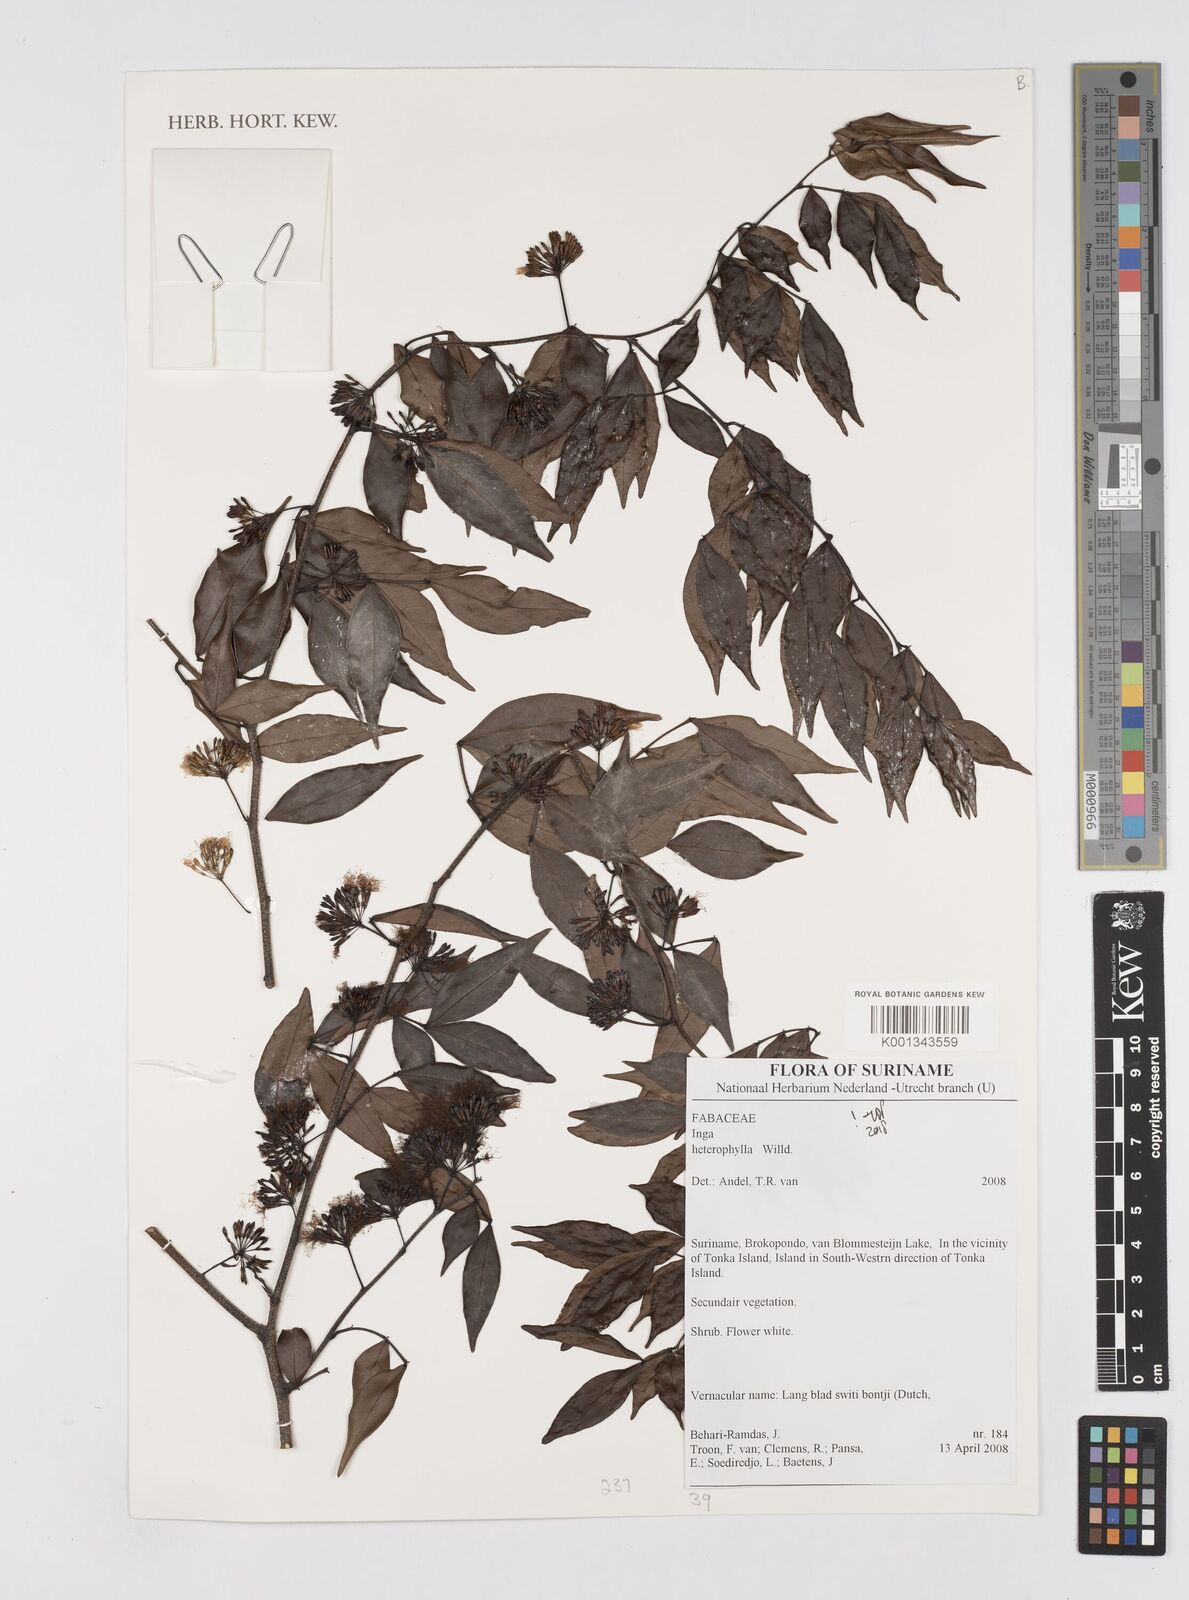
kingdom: Plantae
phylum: Tracheophyta
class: Magnoliopsida
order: Fabales
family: Fabaceae
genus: Inga
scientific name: Inga heterophylla
